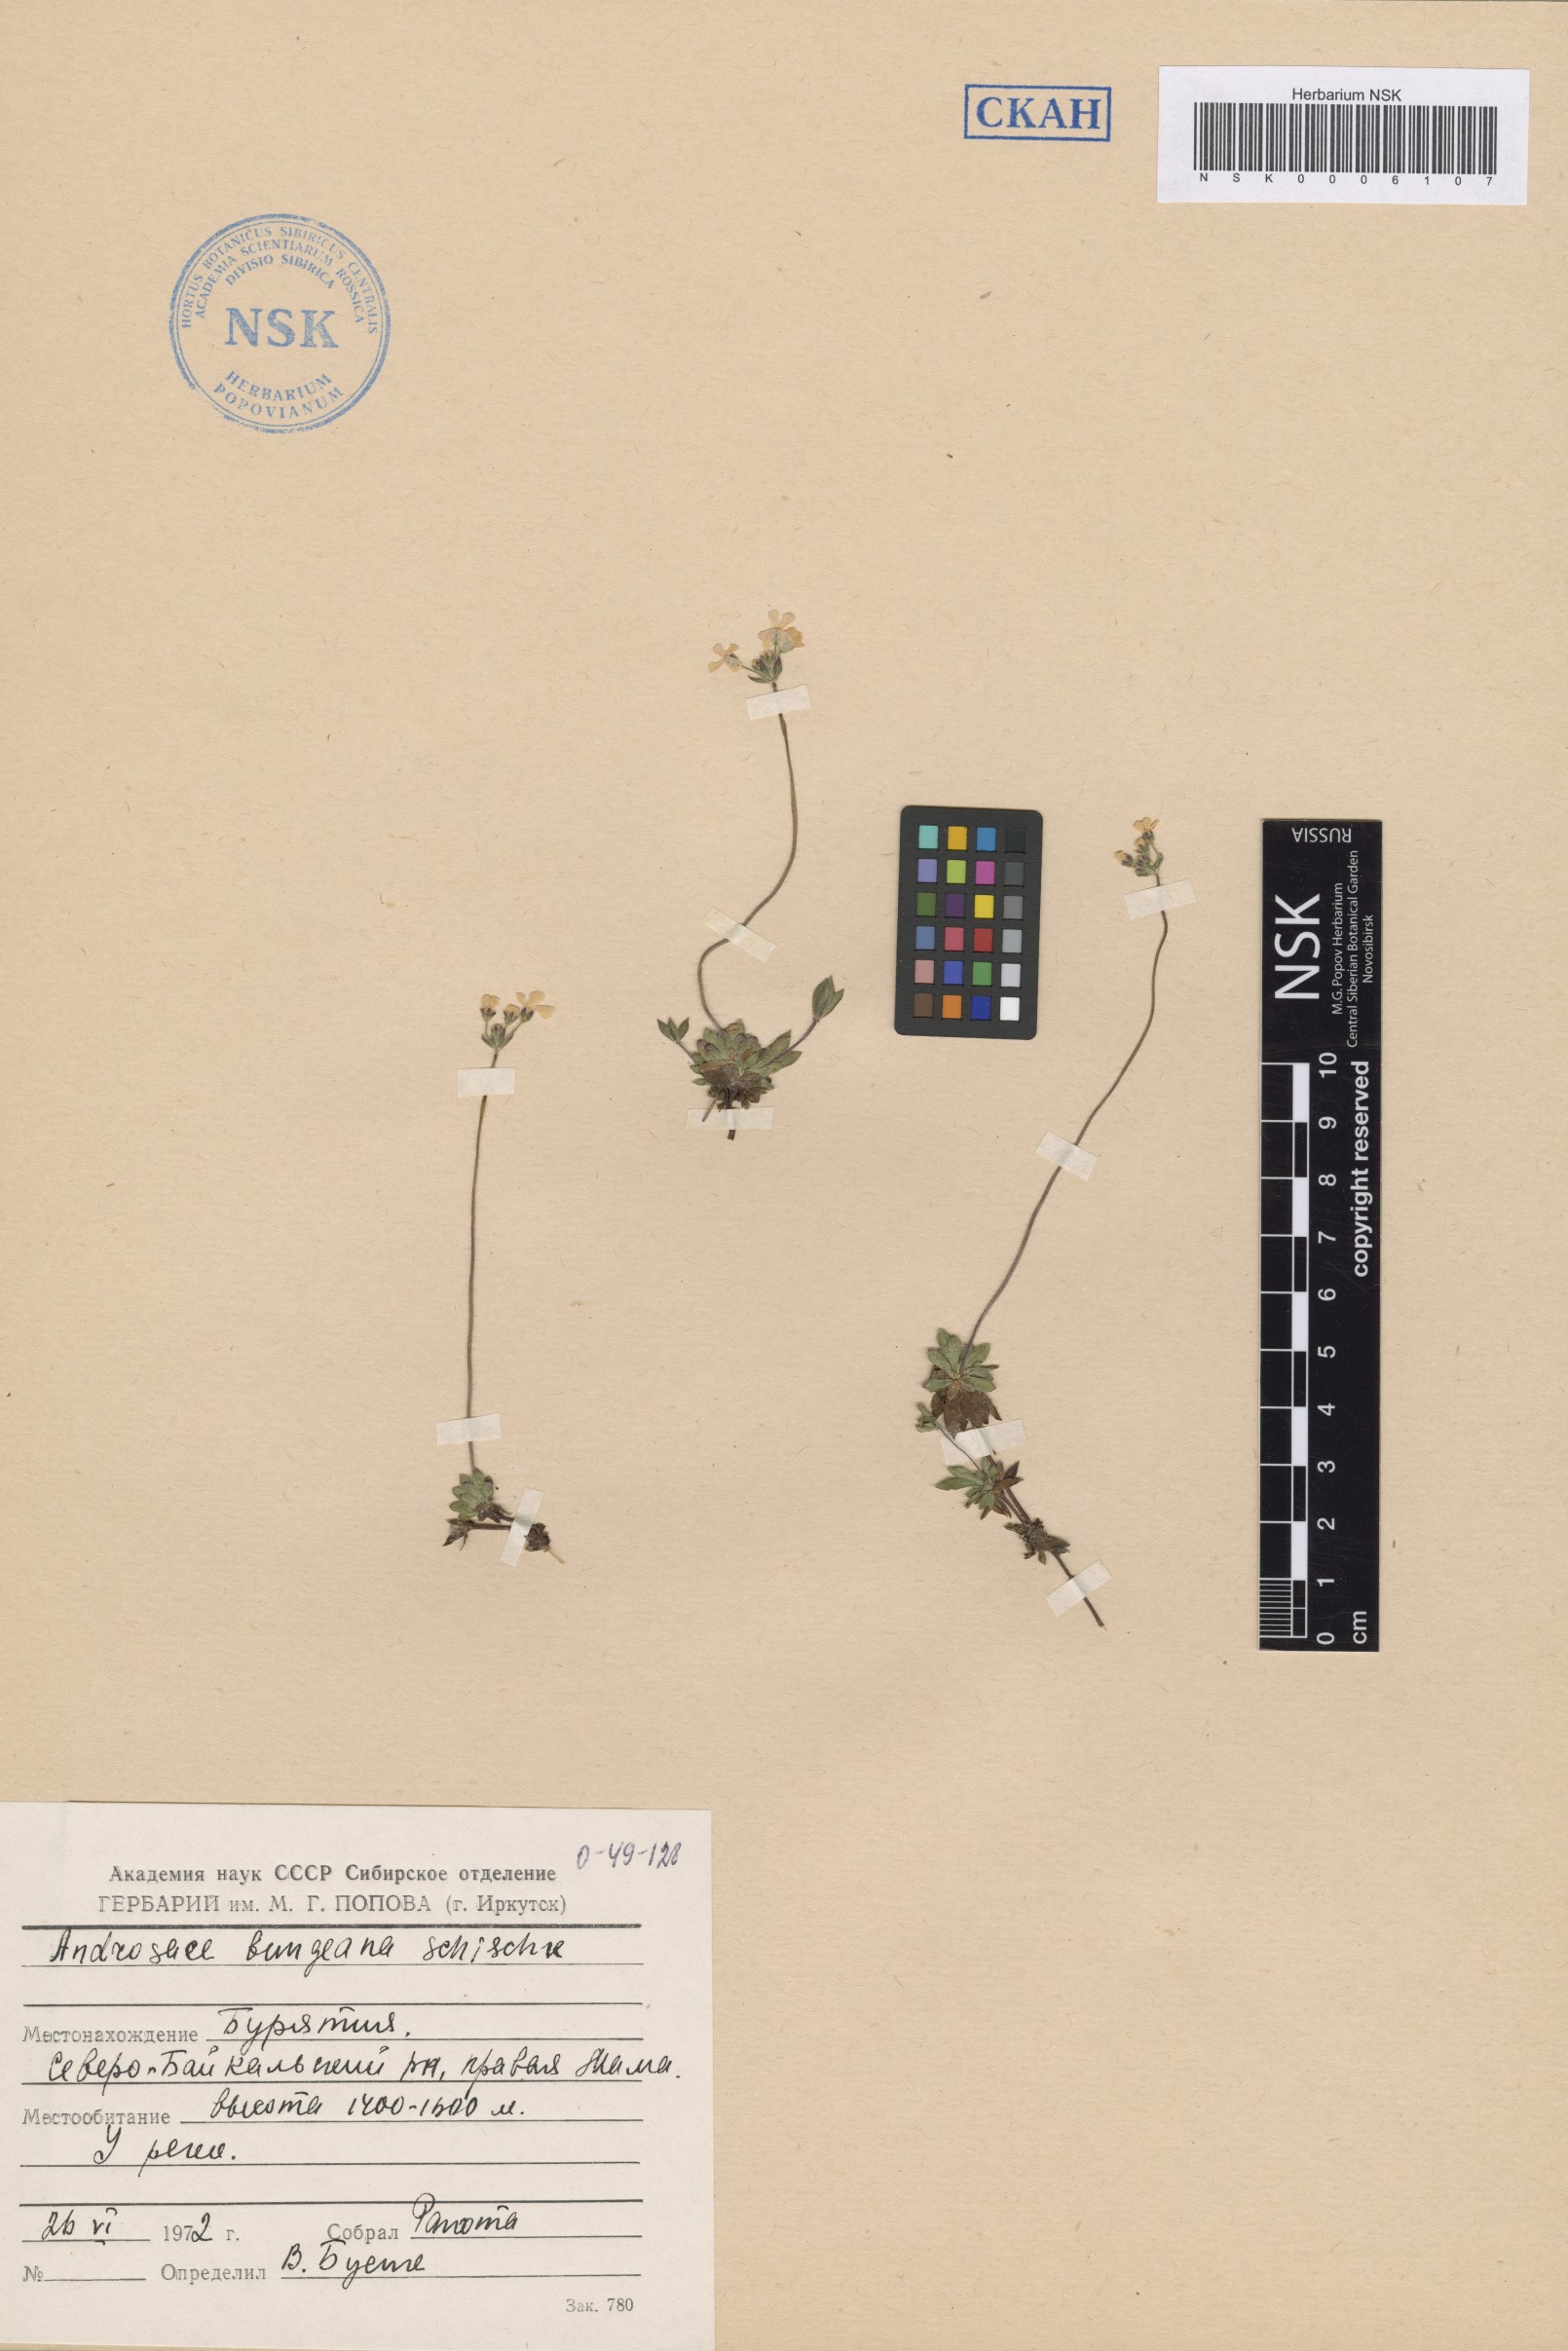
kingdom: Plantae
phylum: Tracheophyta
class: Magnoliopsida
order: Ericales
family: Primulaceae
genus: Androsace
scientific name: Androsace bungeana
